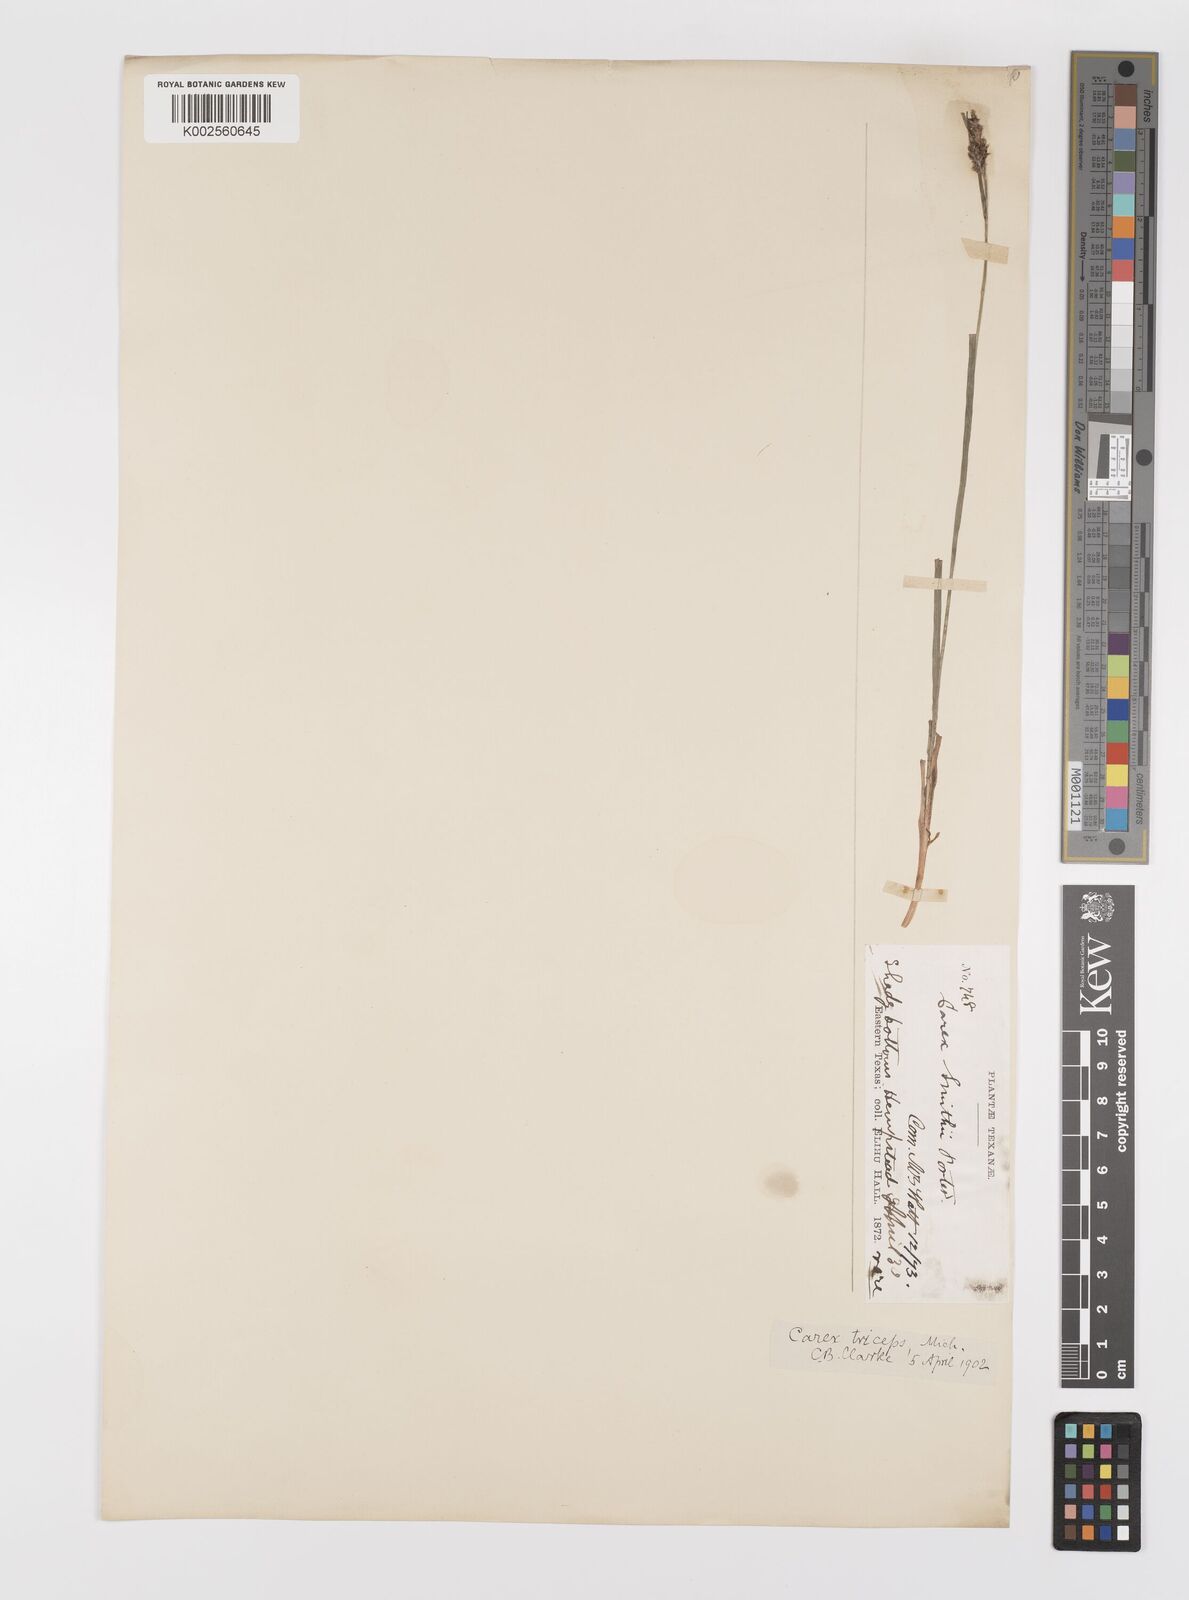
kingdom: Plantae
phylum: Tracheophyta
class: Liliopsida
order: Poales
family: Cyperaceae
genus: Carex
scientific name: Carex caroliniana
